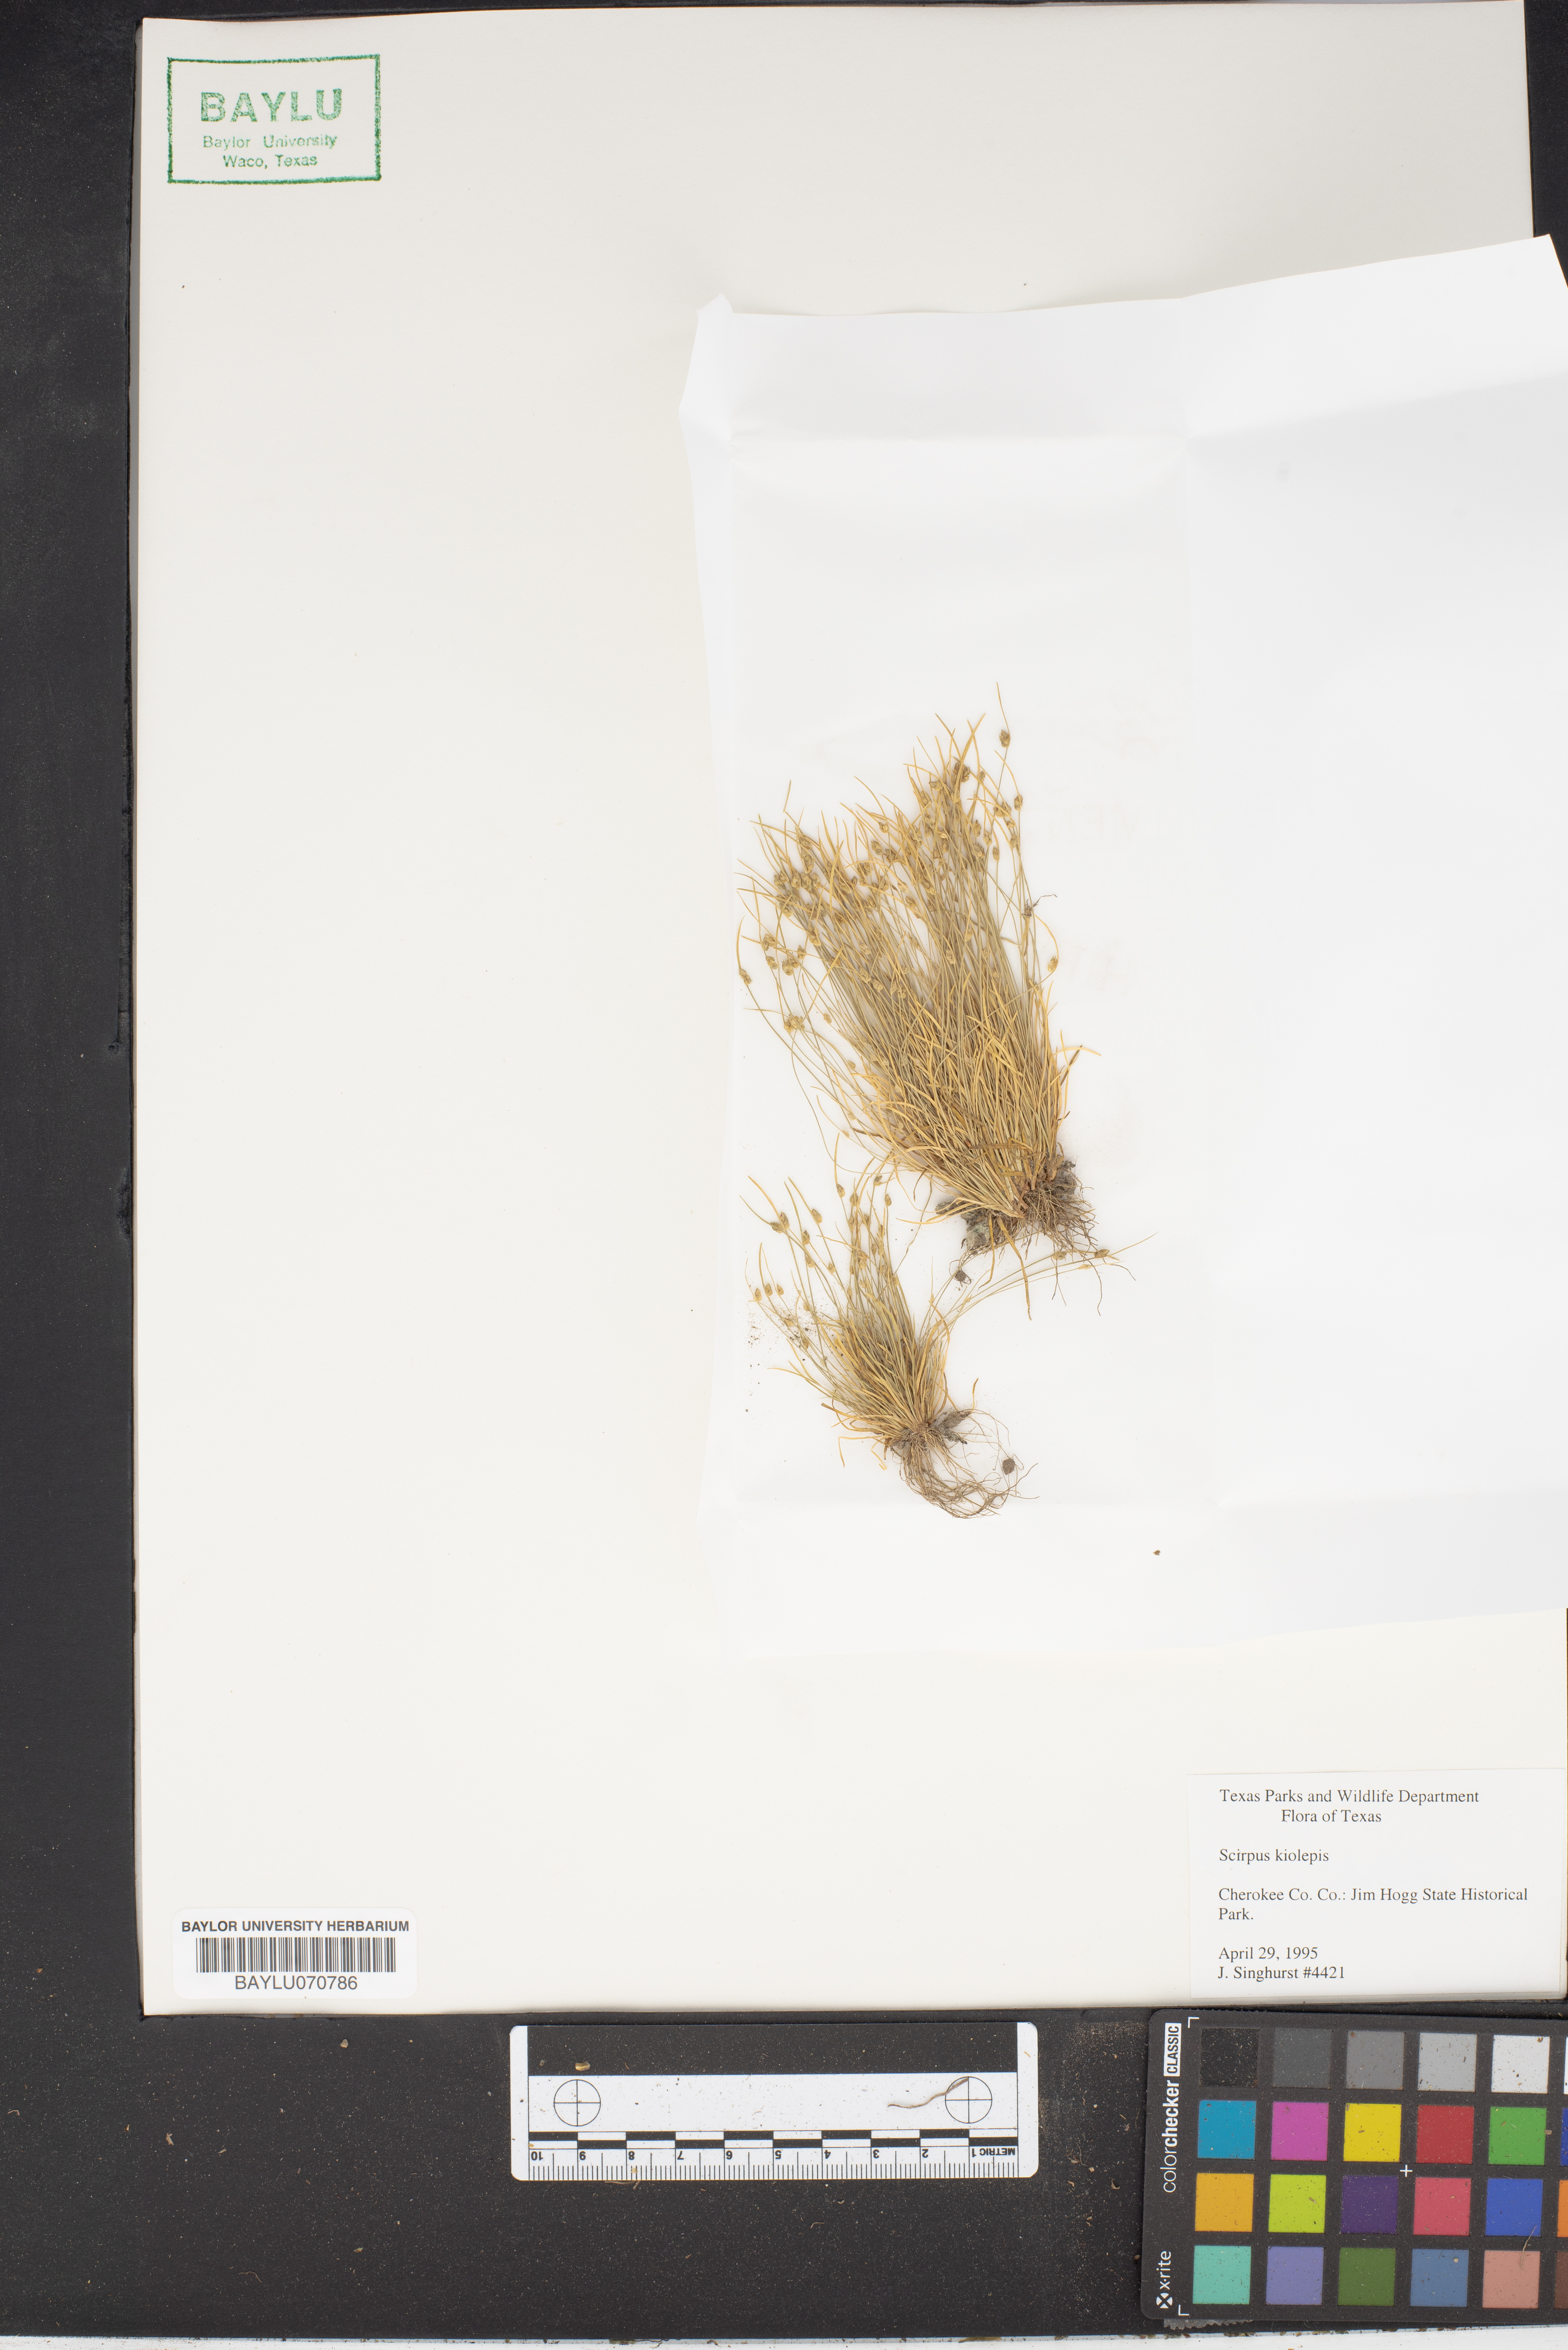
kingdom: Plantae
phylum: Tracheophyta
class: Liliopsida
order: Poales
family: Cyperaceae
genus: Isolepis
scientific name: Isolepis carinata
